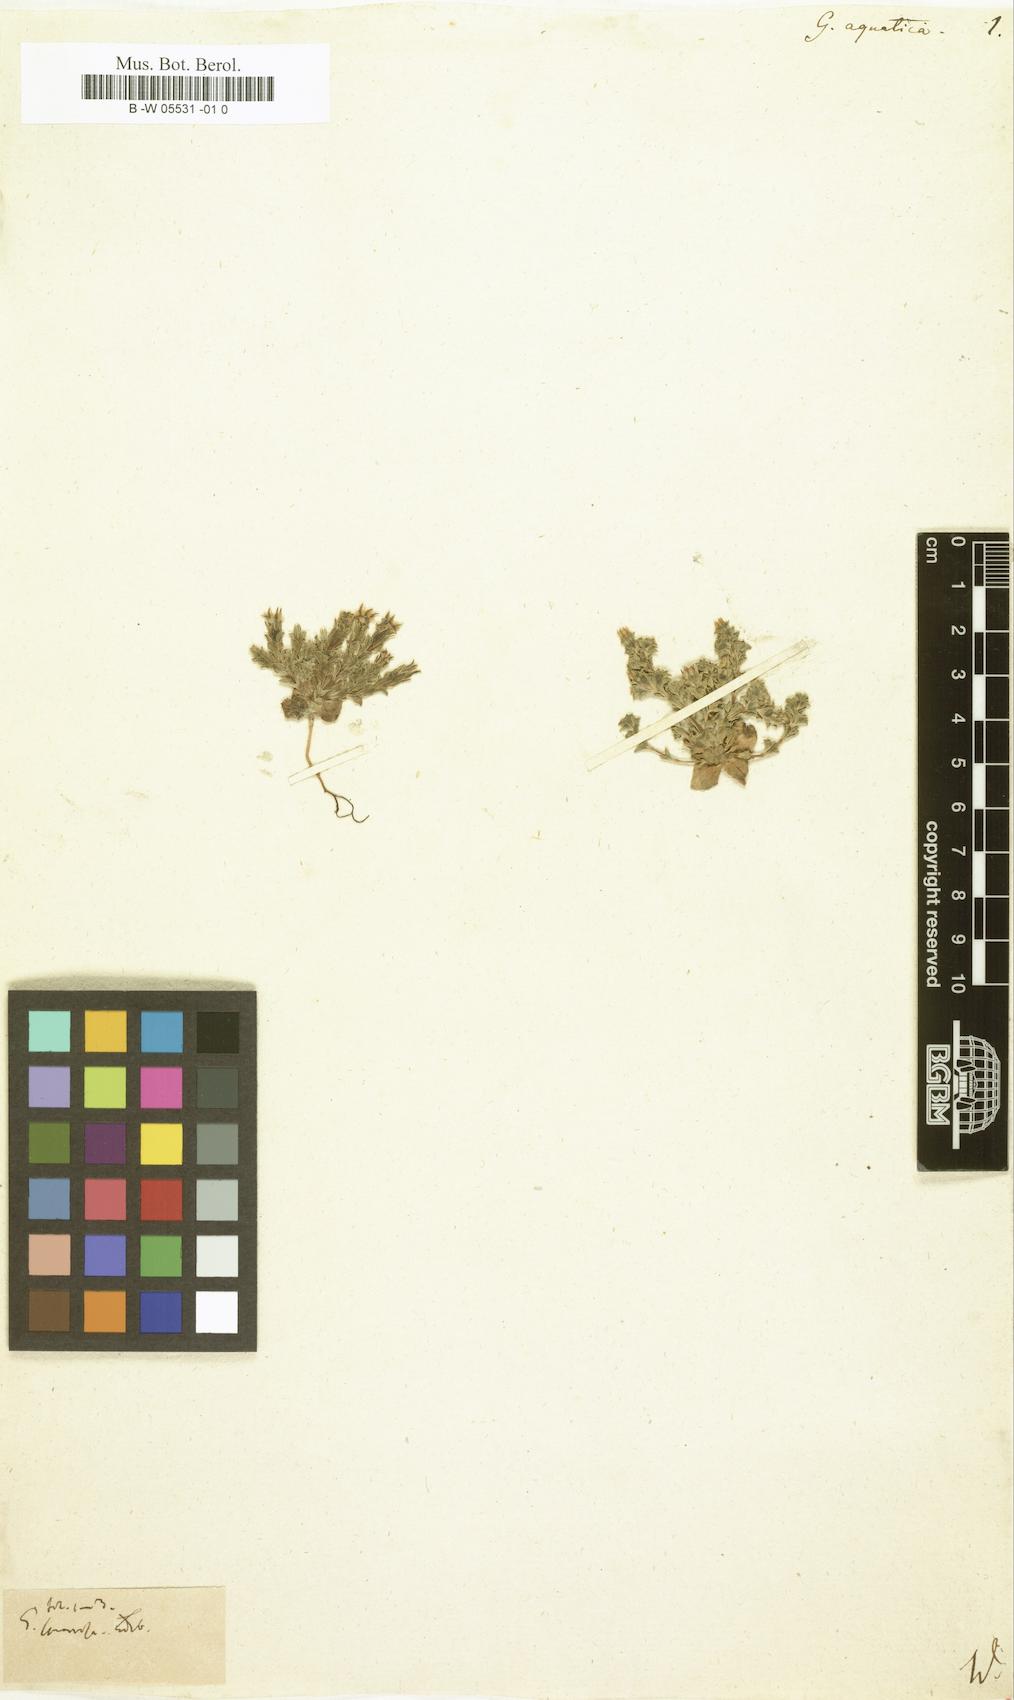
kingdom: Plantae
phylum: Tracheophyta
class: Magnoliopsida
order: Gentianales
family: Gentianaceae
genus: Gentiana
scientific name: Gentiana aquatica
